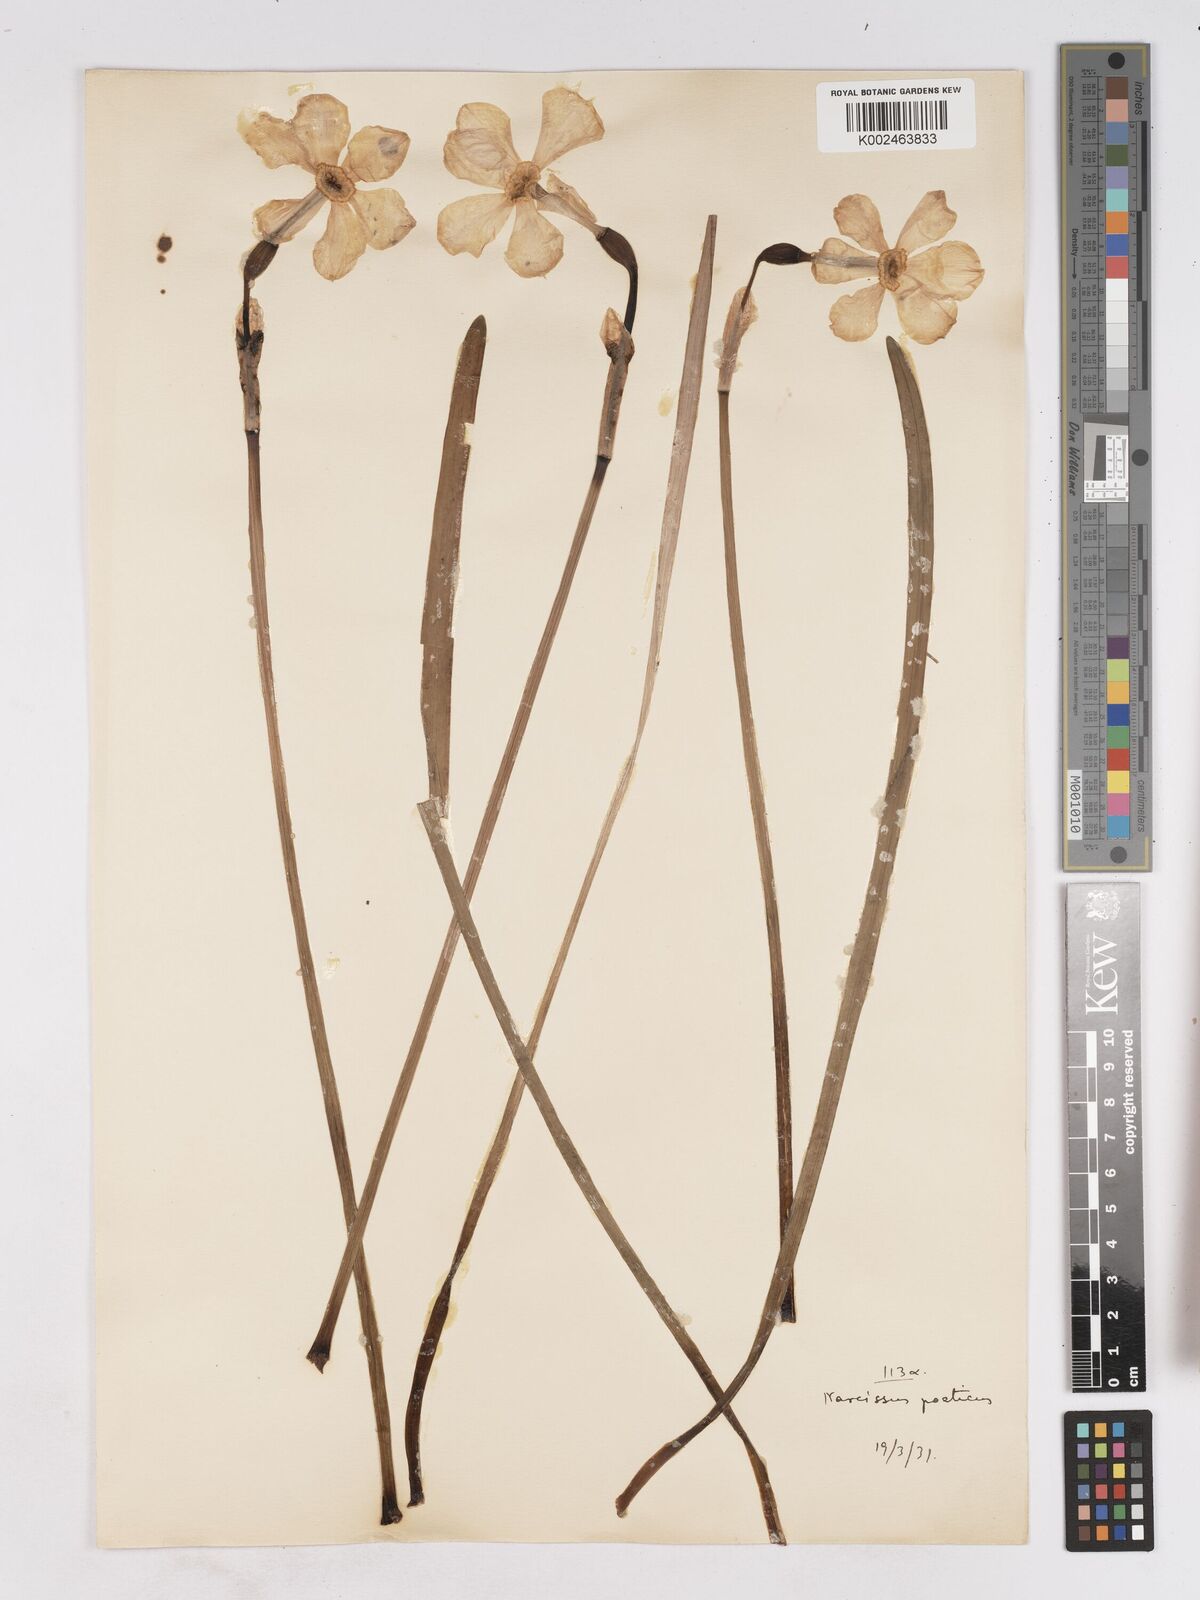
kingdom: Plantae
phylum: Tracheophyta
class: Liliopsida
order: Asparagales
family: Amaryllidaceae
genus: Narcissus
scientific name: Narcissus
